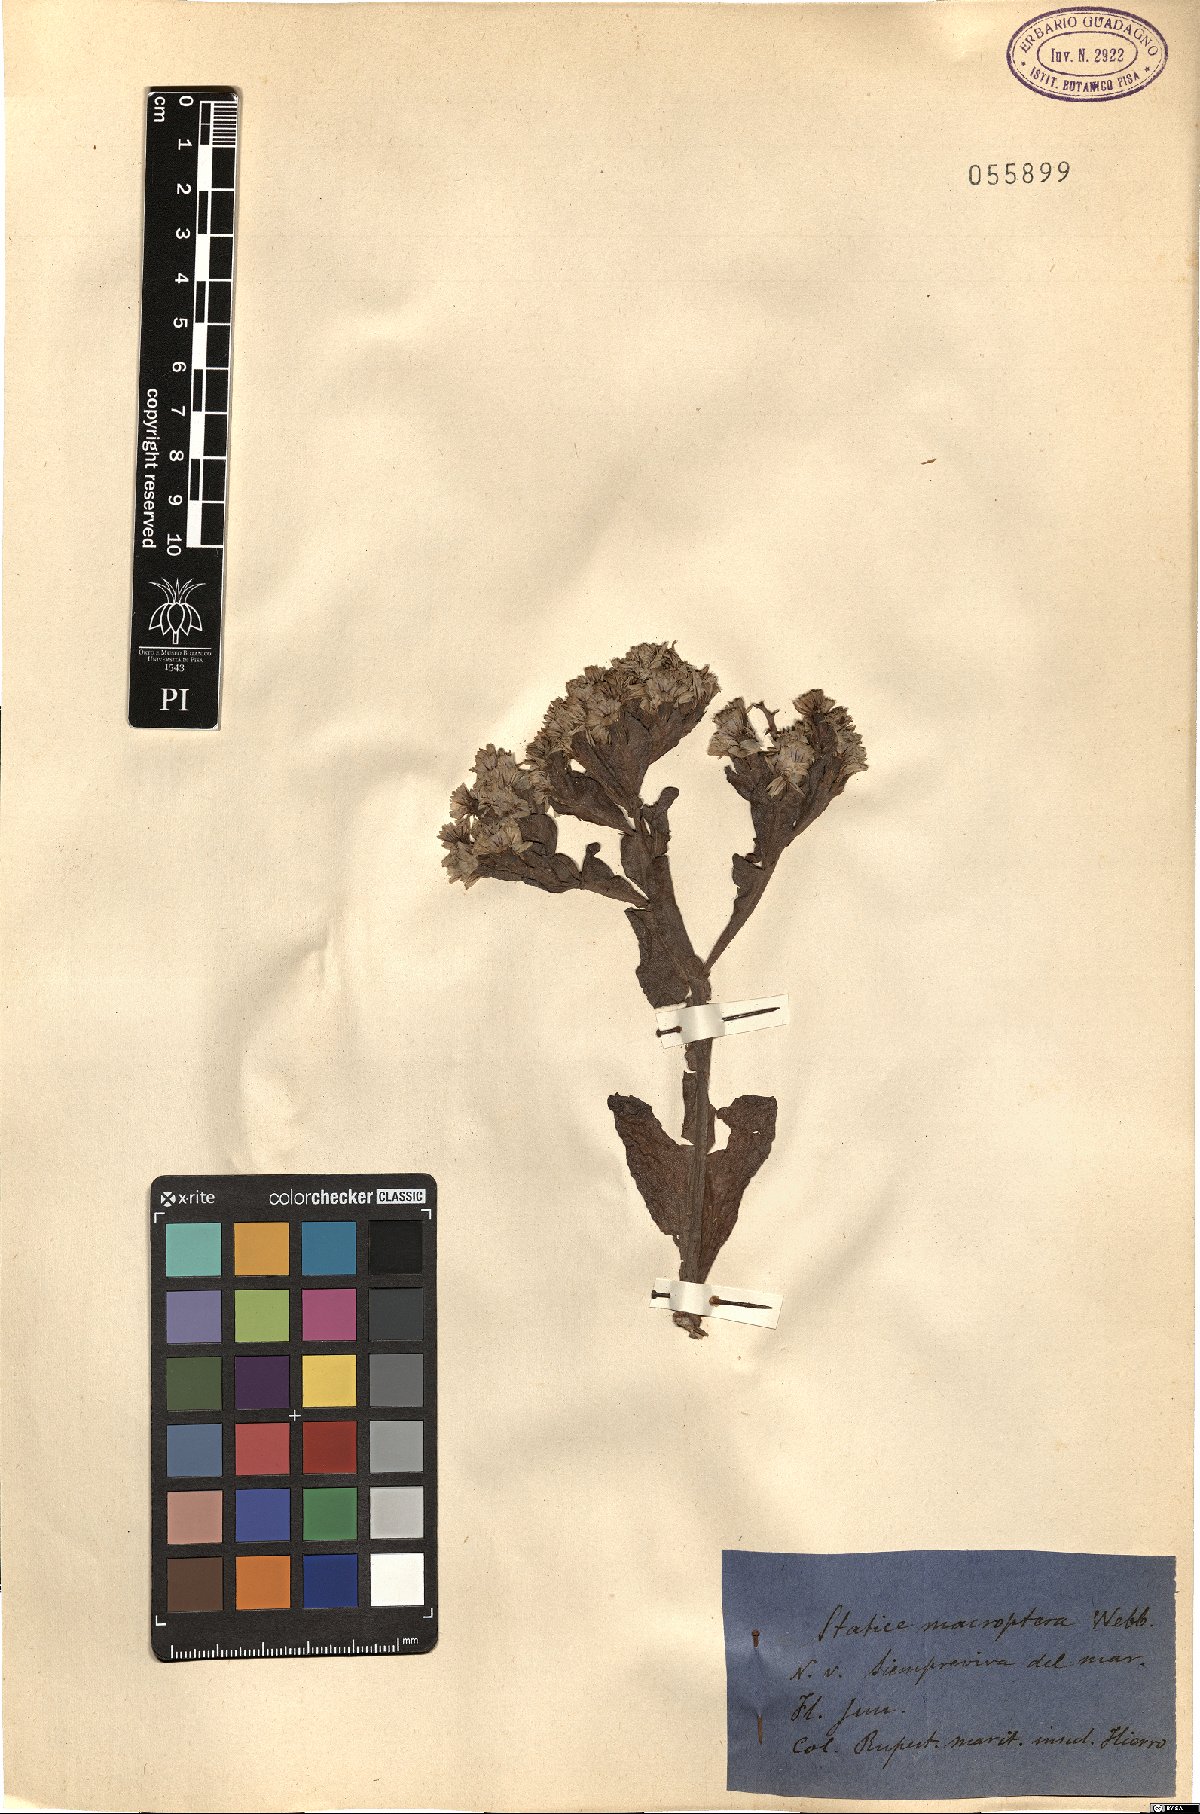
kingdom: Plantae
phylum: Tracheophyta
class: Magnoliopsida
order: Caryophyllales
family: Plumbaginaceae
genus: Limonium
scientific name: Limonium macropterum
